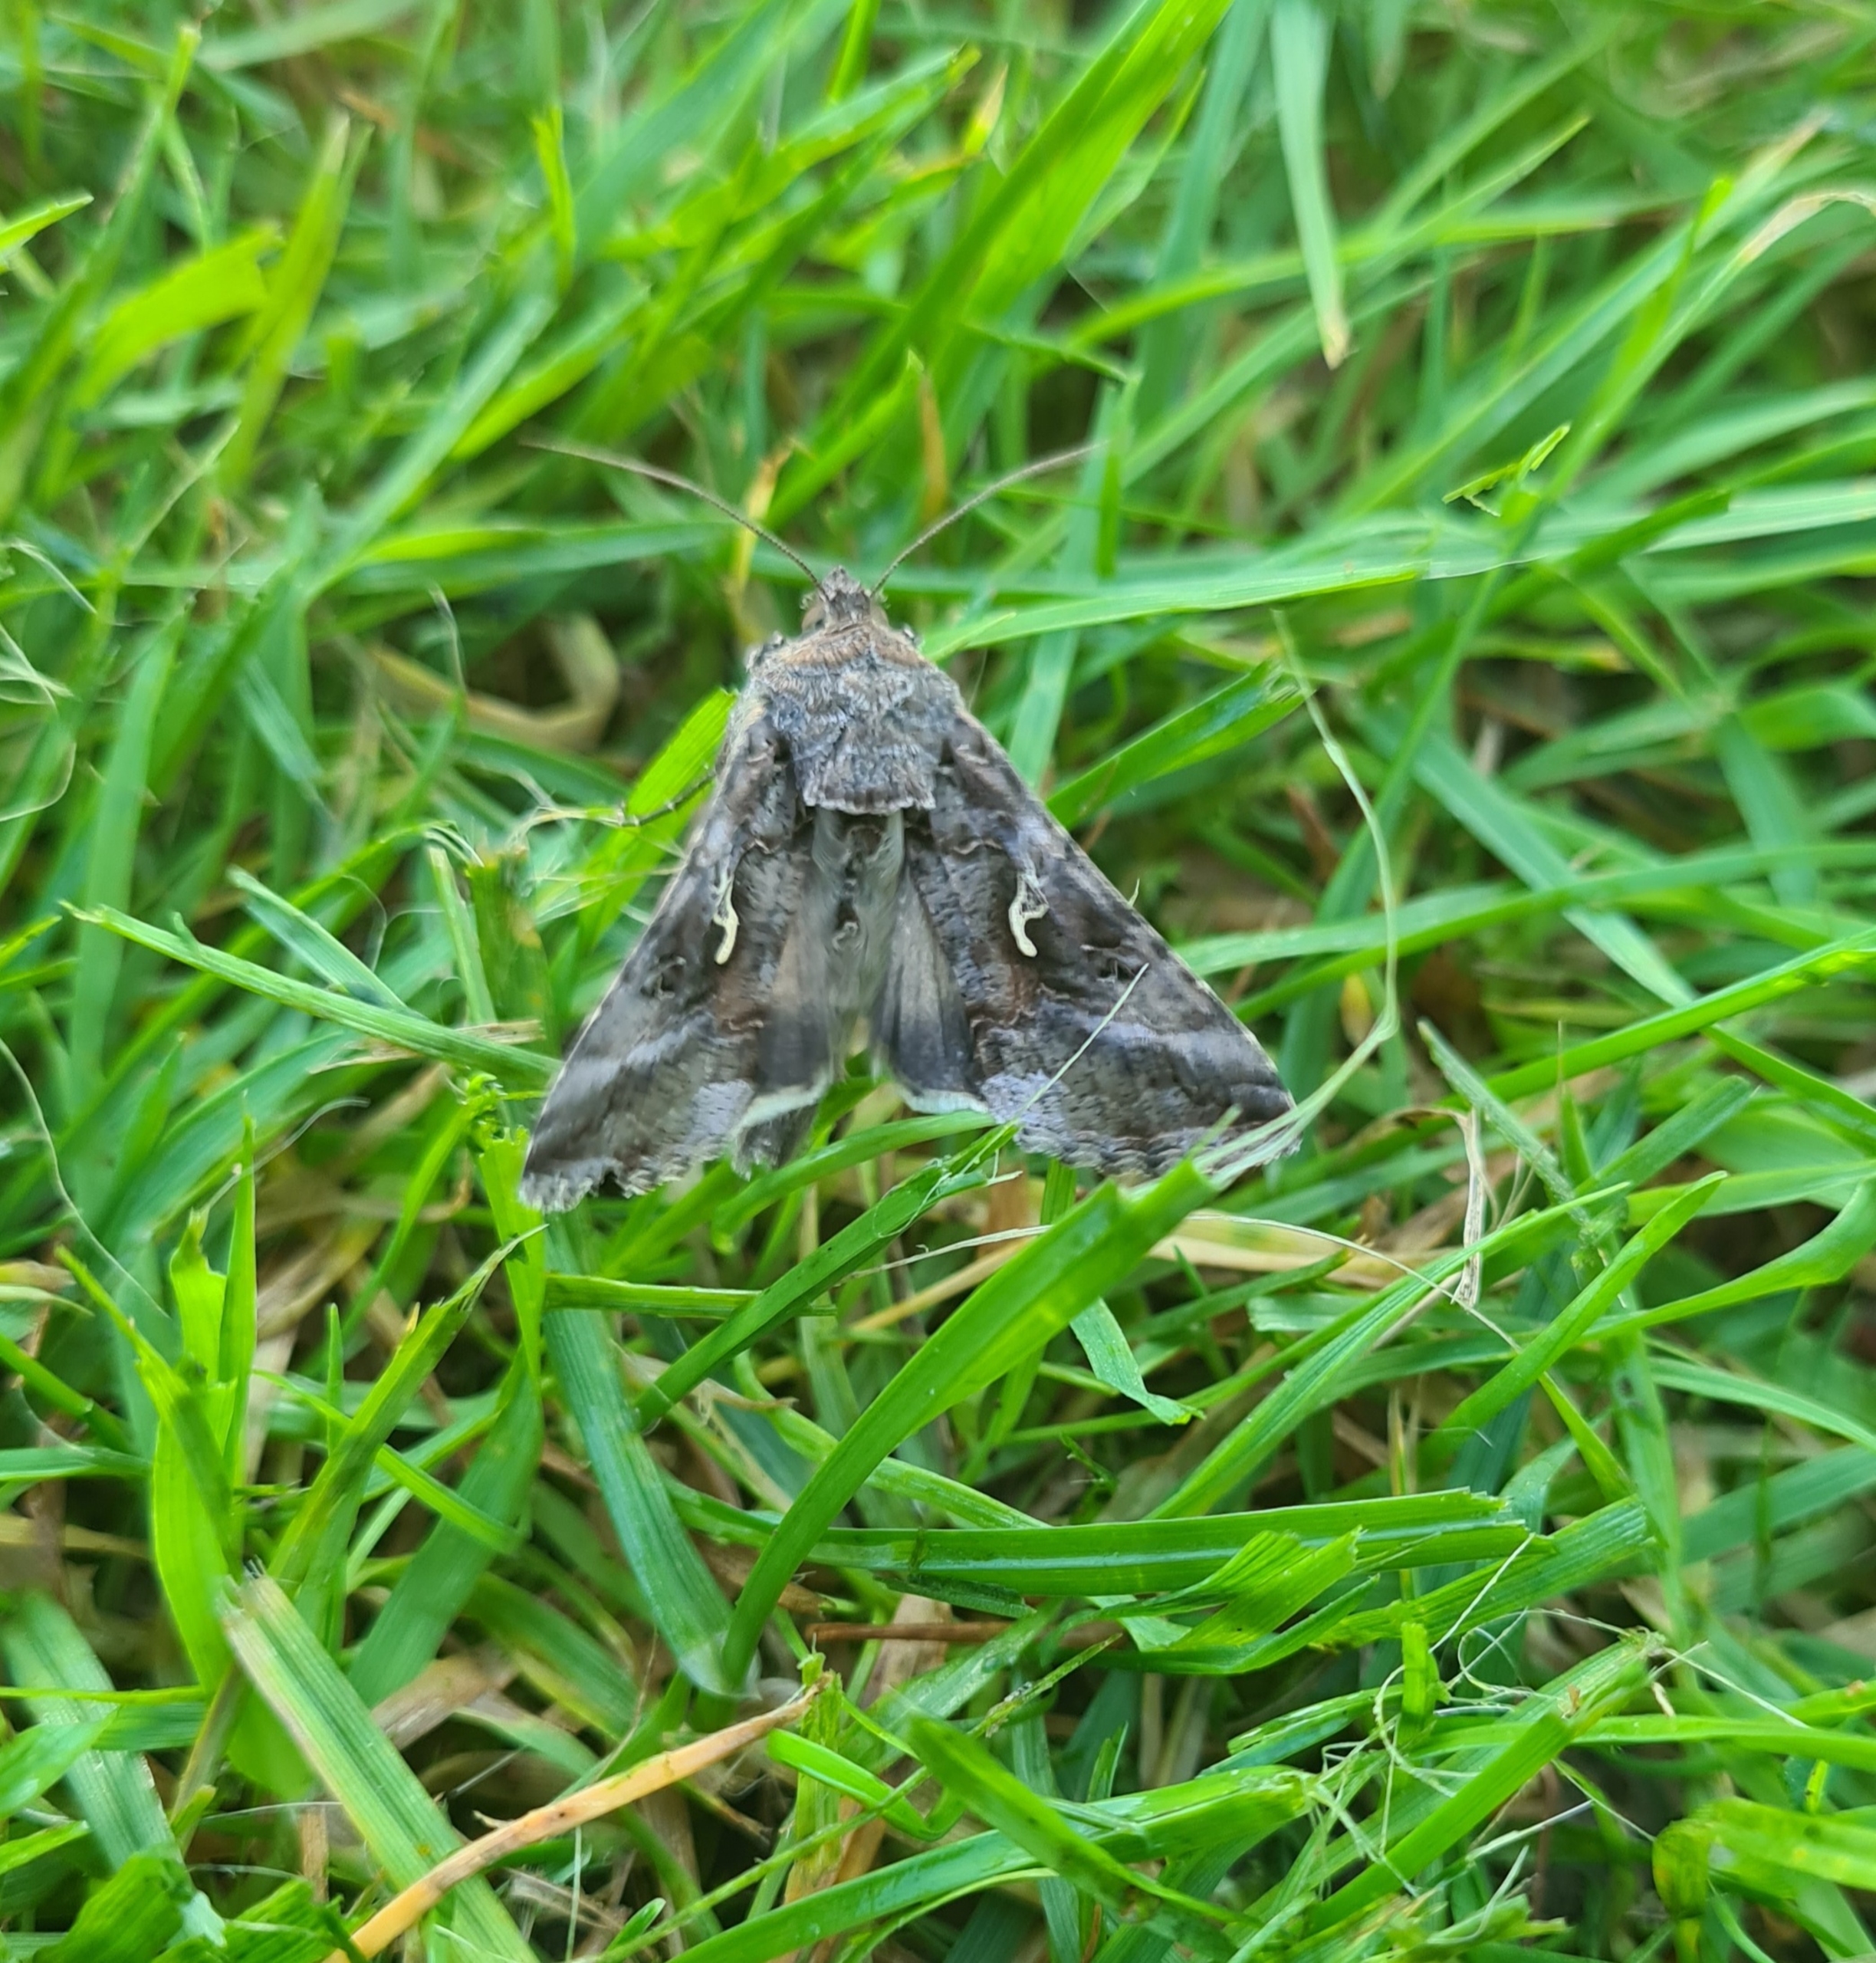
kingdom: Animalia
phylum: Arthropoda
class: Insecta
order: Lepidoptera
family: Noctuidae
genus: Autographa
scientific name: Autographa gamma
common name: Gammaugle
